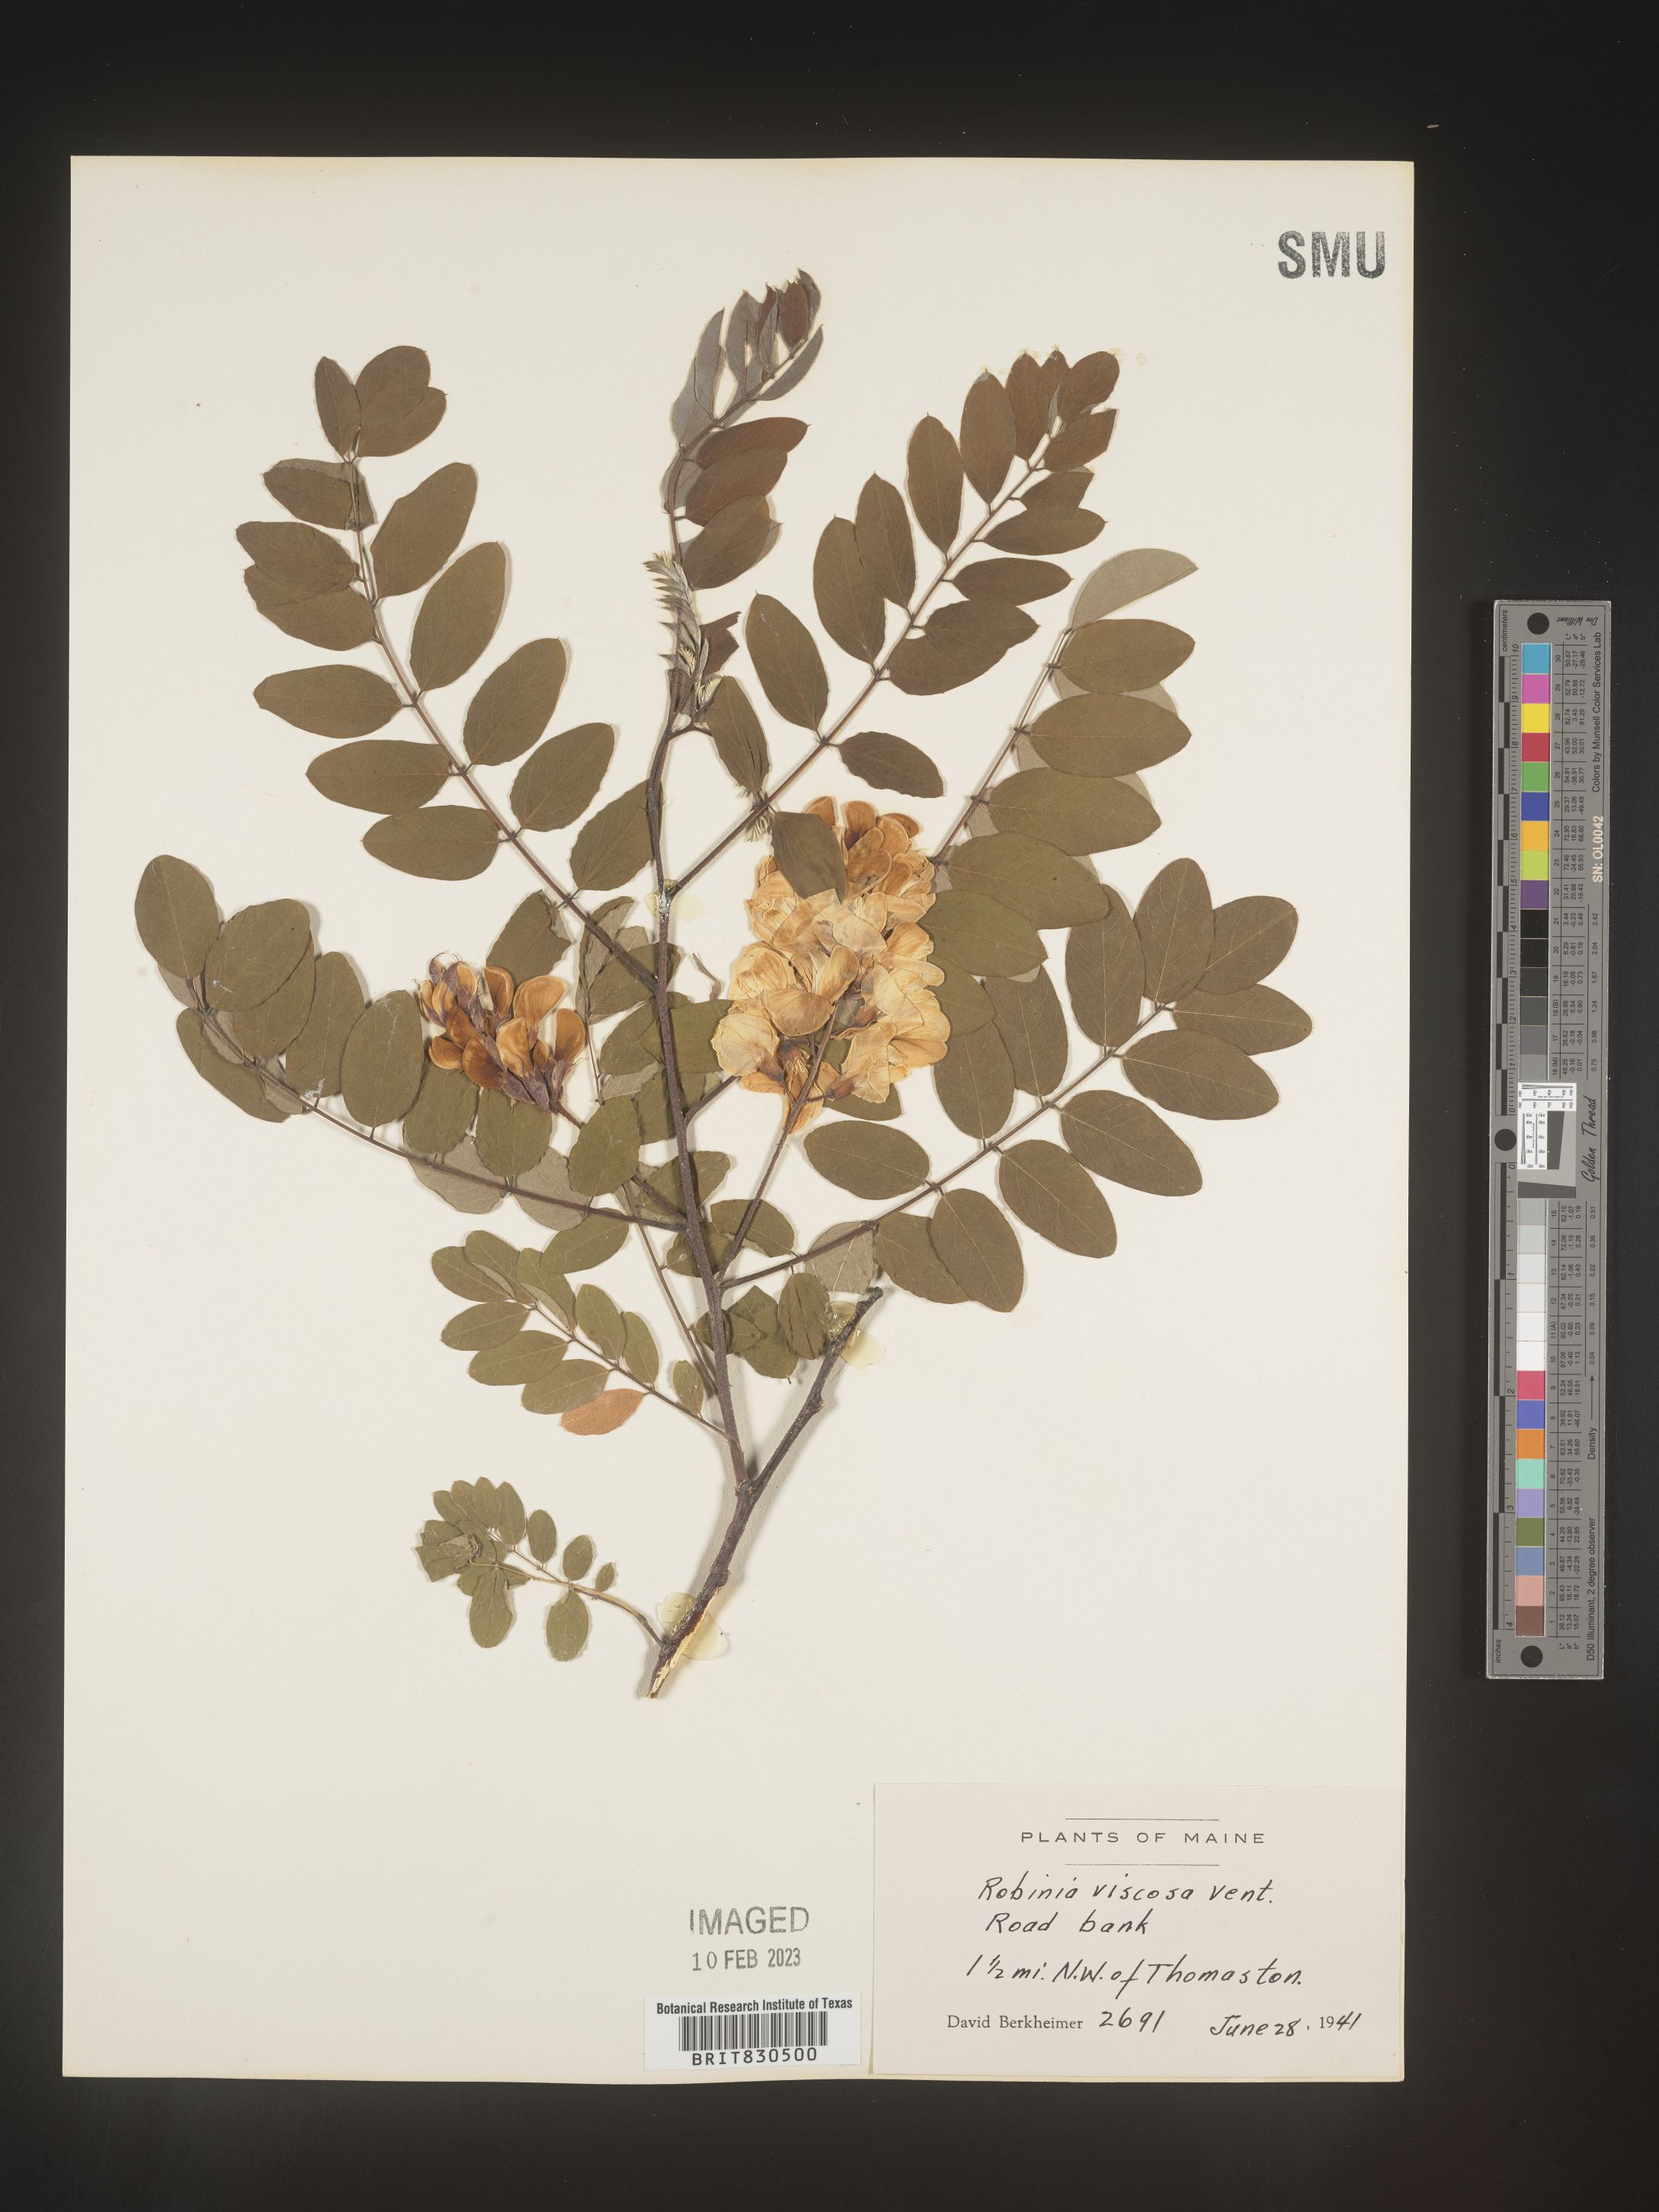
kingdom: Plantae
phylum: Tracheophyta
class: Magnoliopsida
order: Fabales
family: Fabaceae
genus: Robinia
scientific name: Robinia
